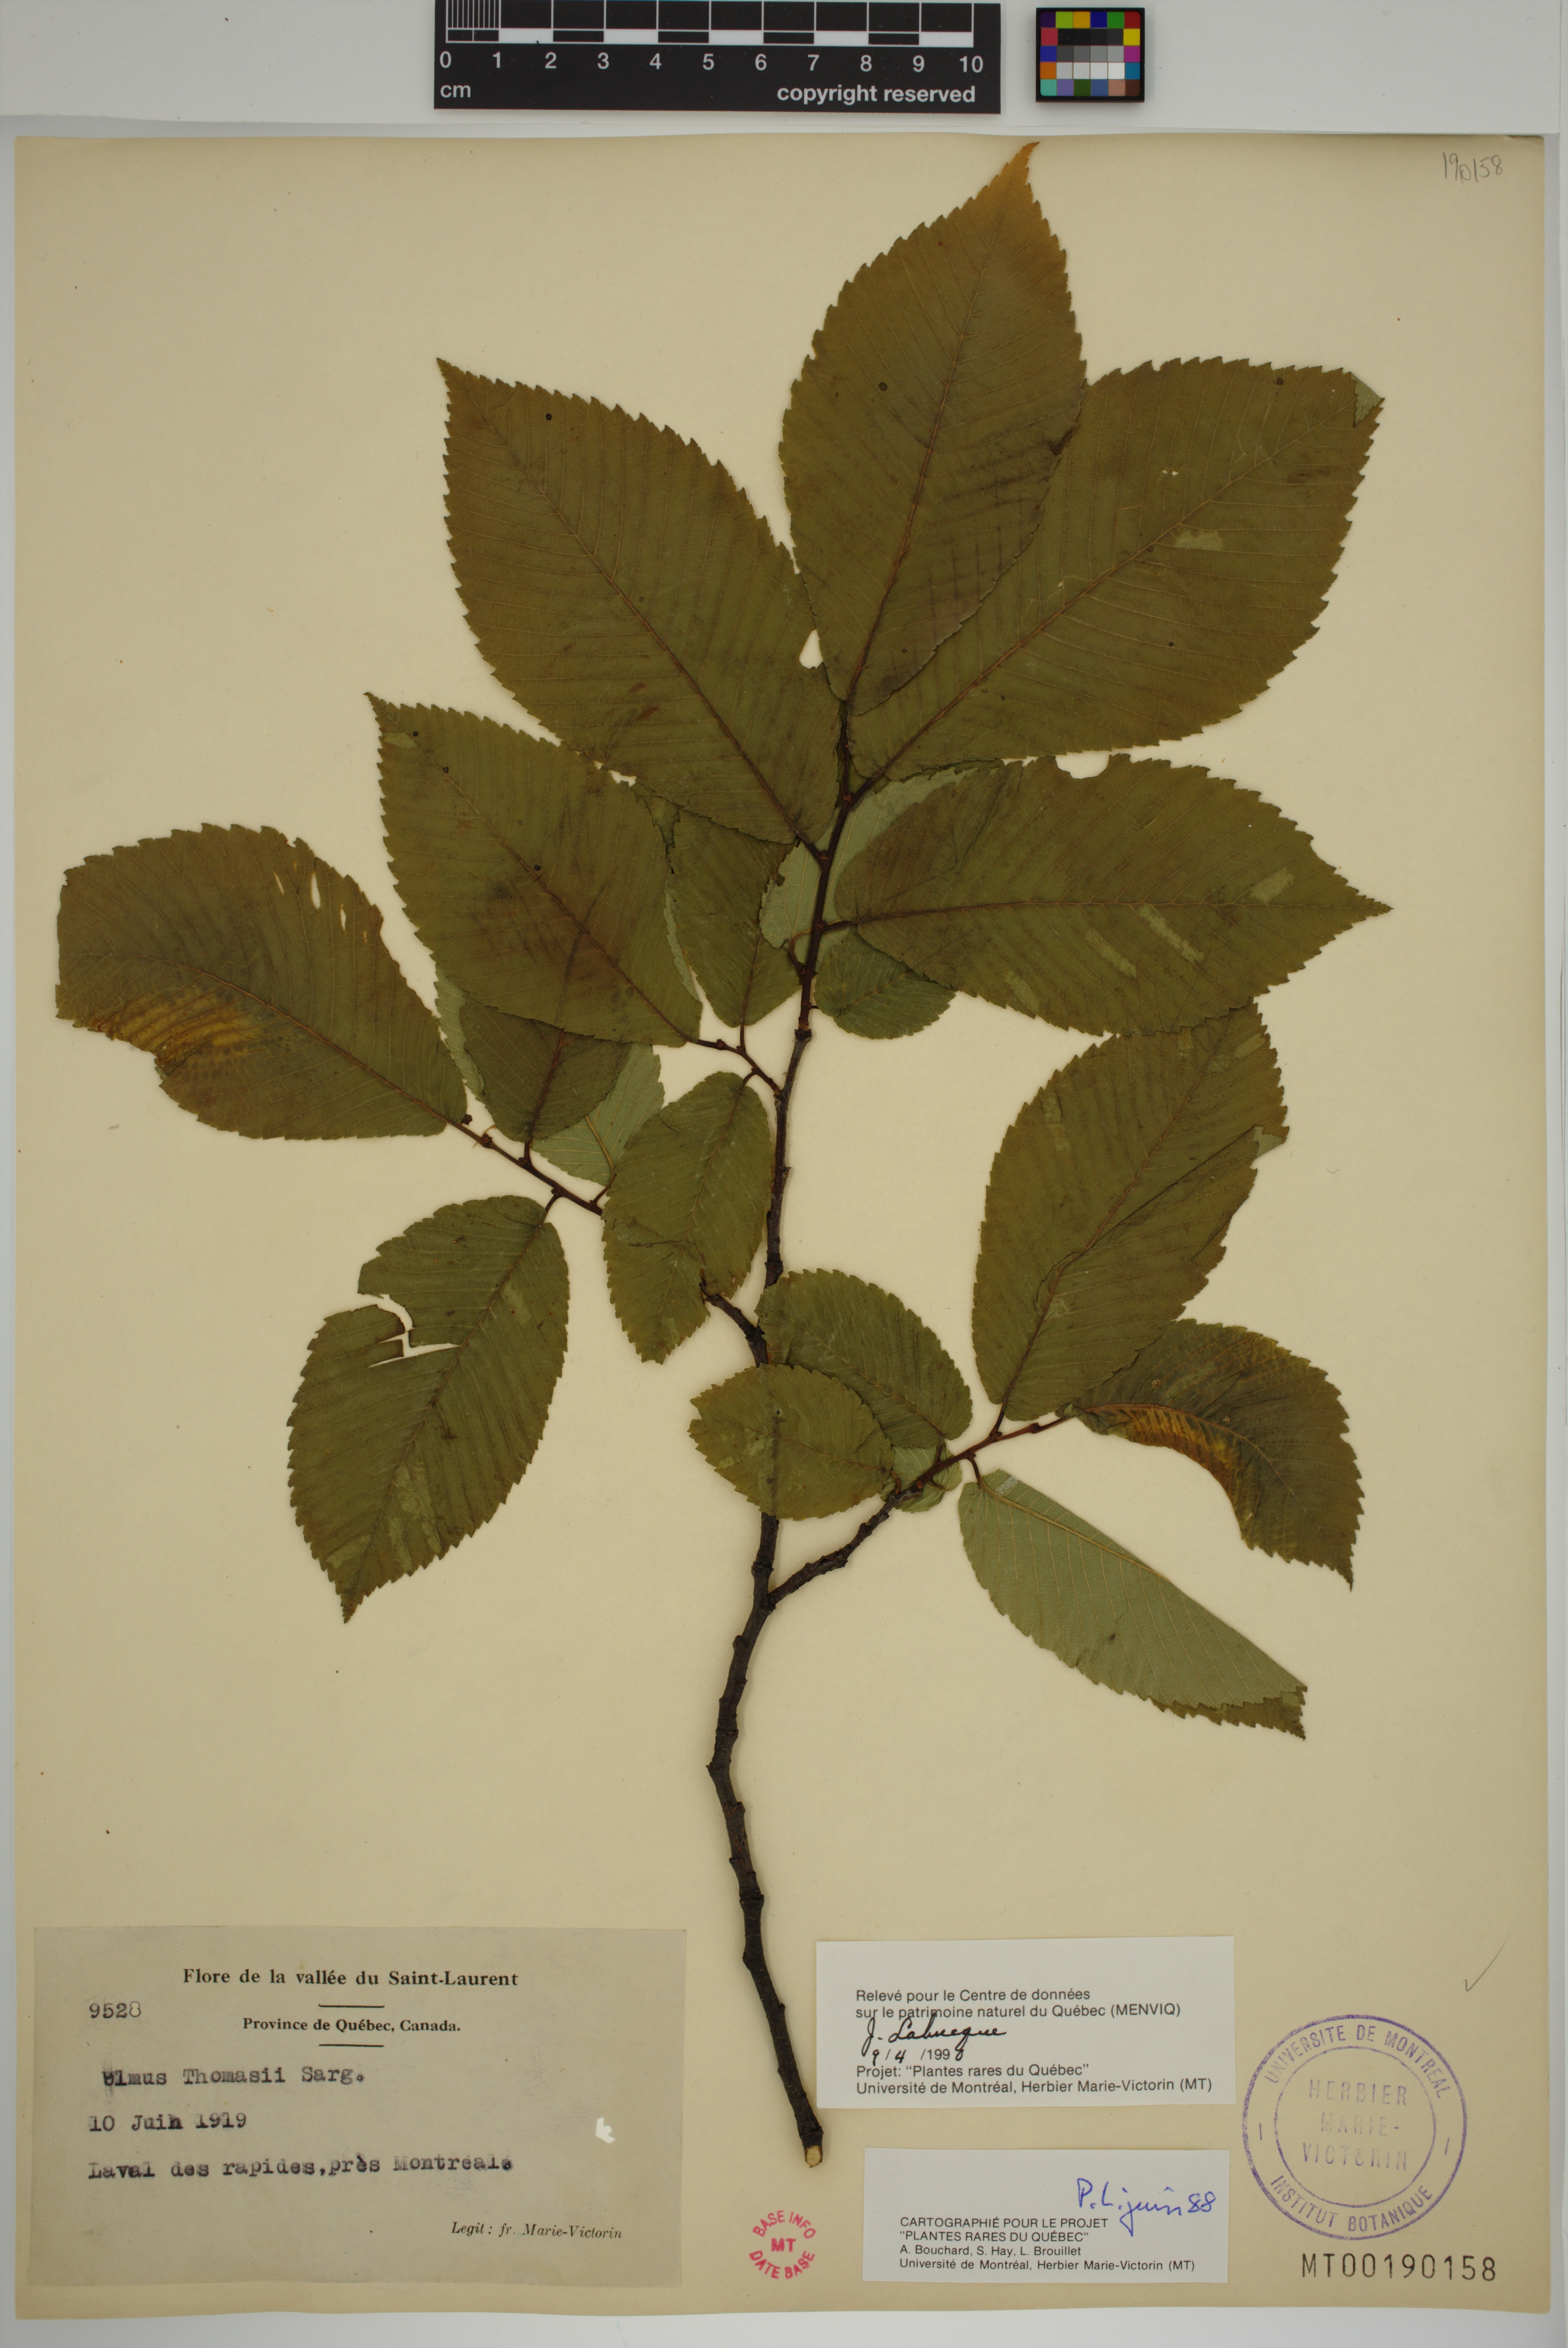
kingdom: Plantae
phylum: Tracheophyta
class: Magnoliopsida
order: Rosales
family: Ulmaceae
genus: Ulmus
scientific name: Ulmus thomasii
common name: Rock elm
